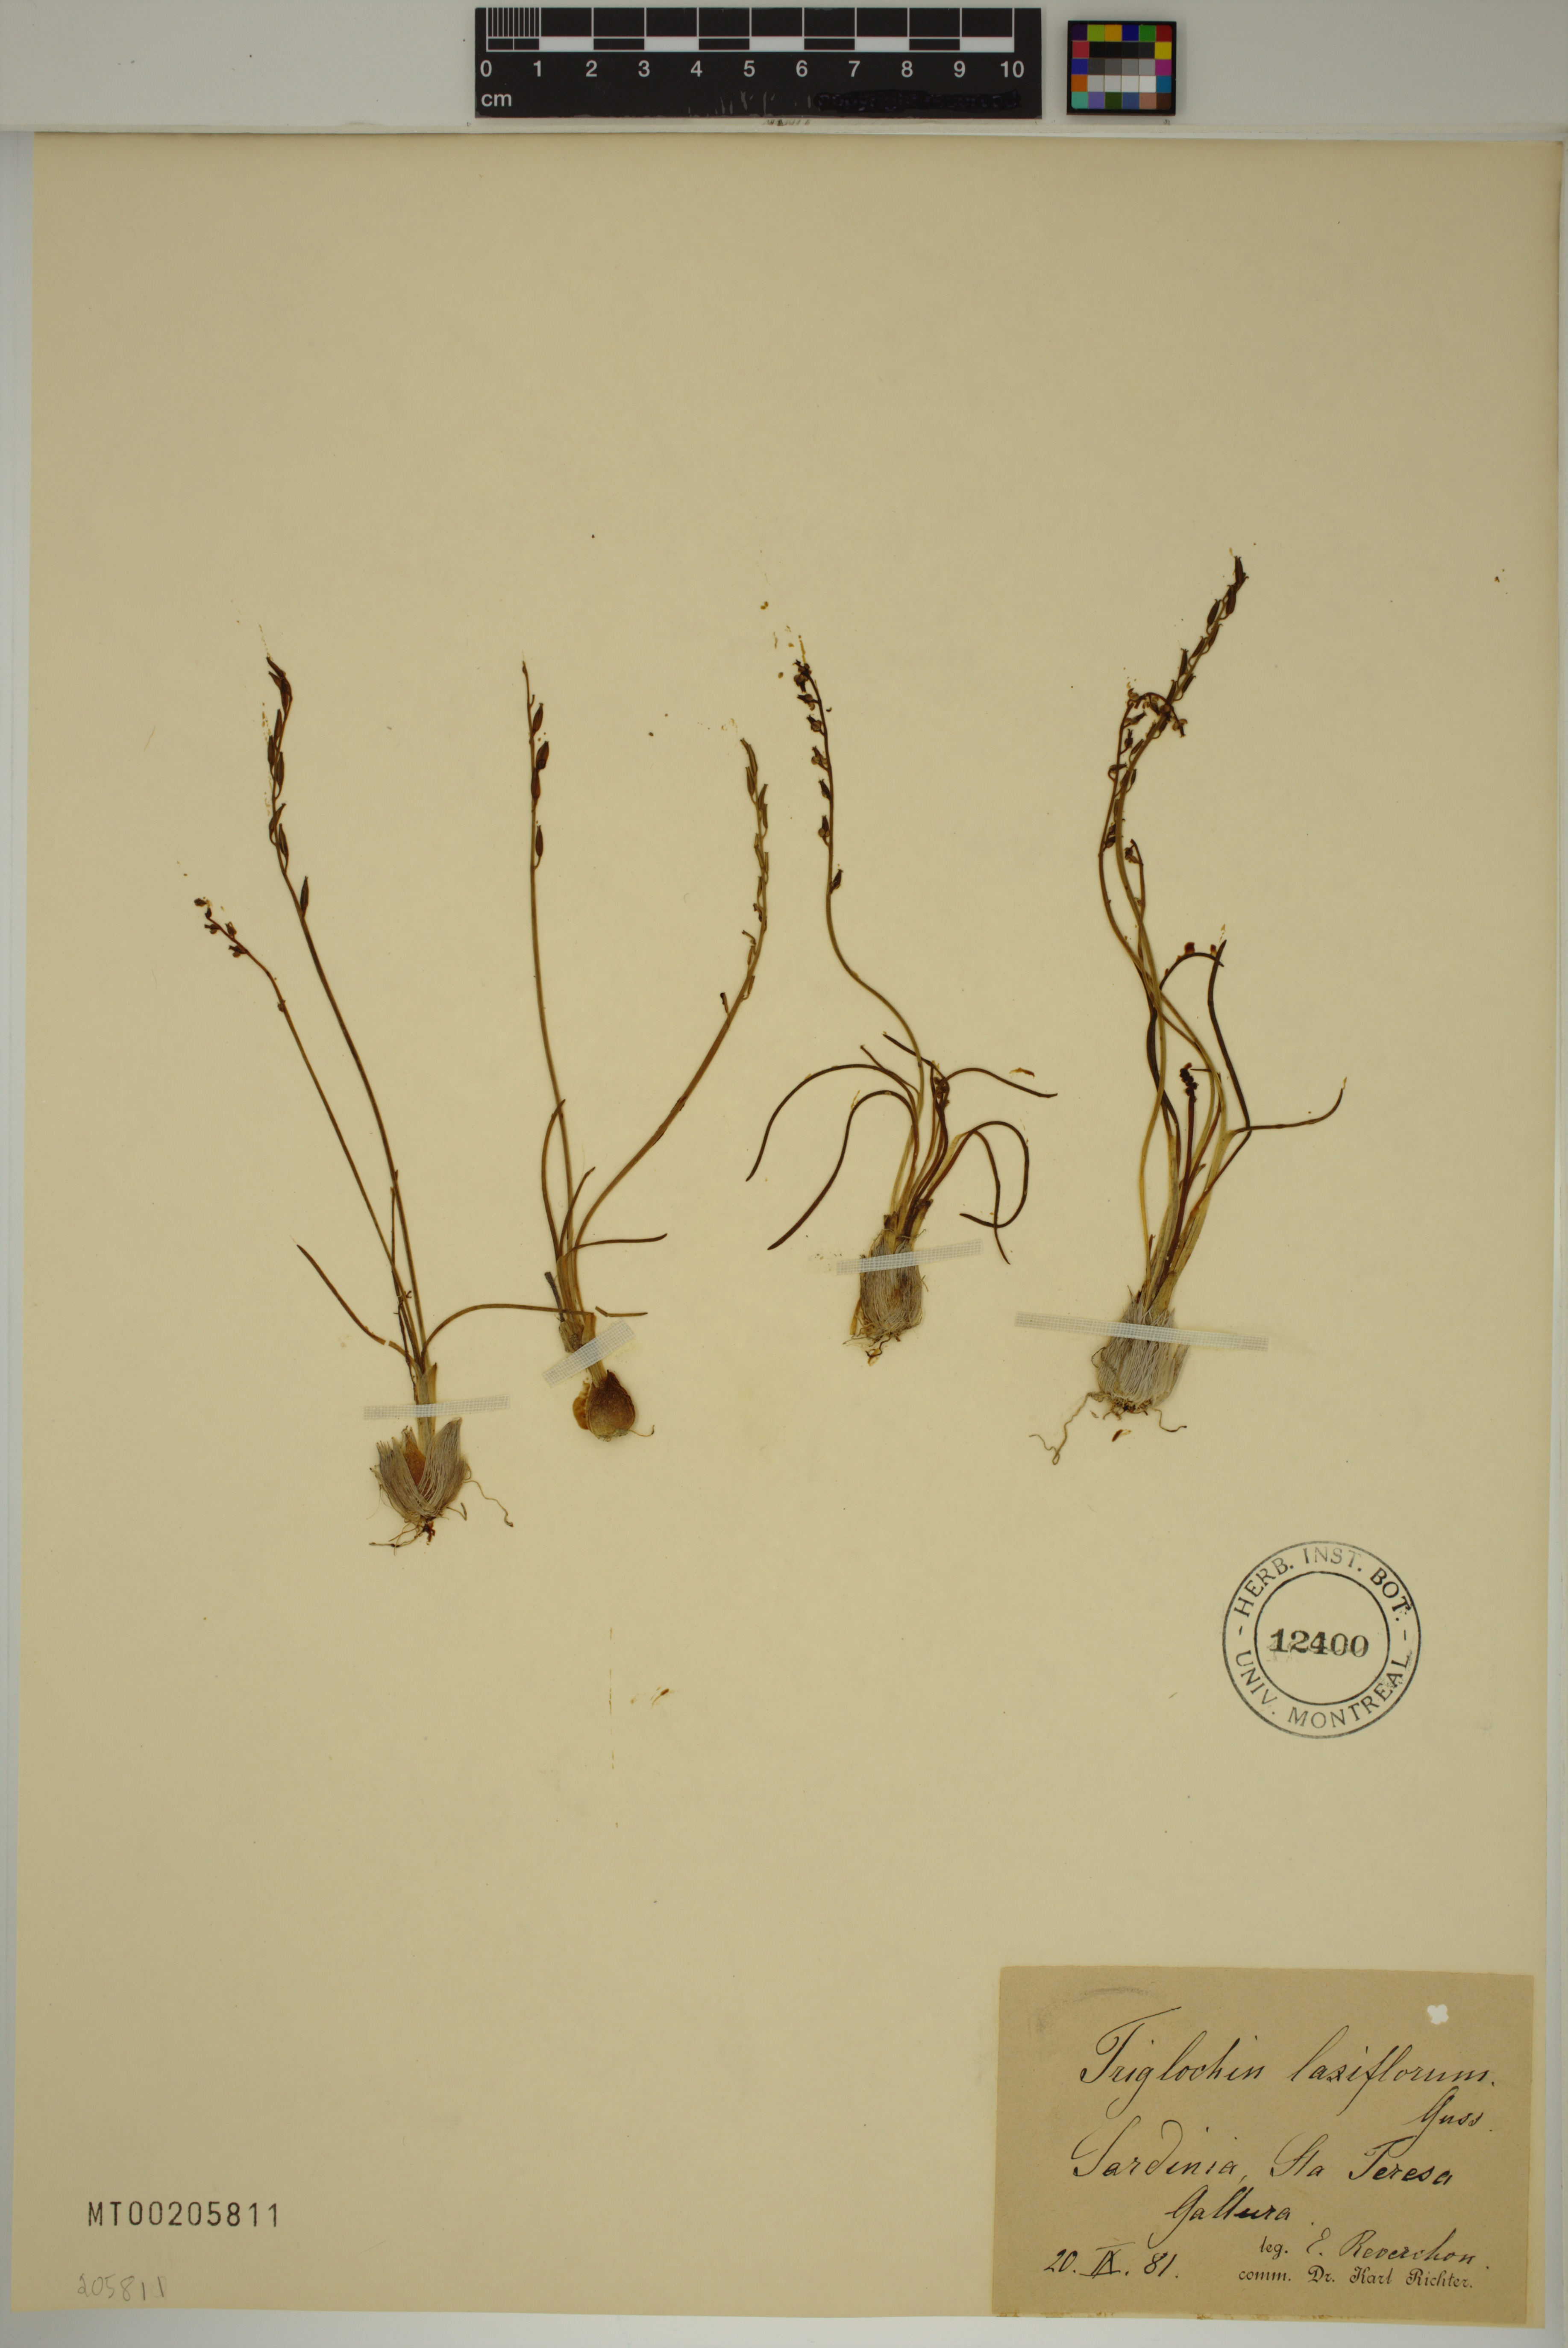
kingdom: Plantae
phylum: Tracheophyta
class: Liliopsida
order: Alismatales
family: Juncaginaceae
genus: Triglochin
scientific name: Triglochin laxiflora
